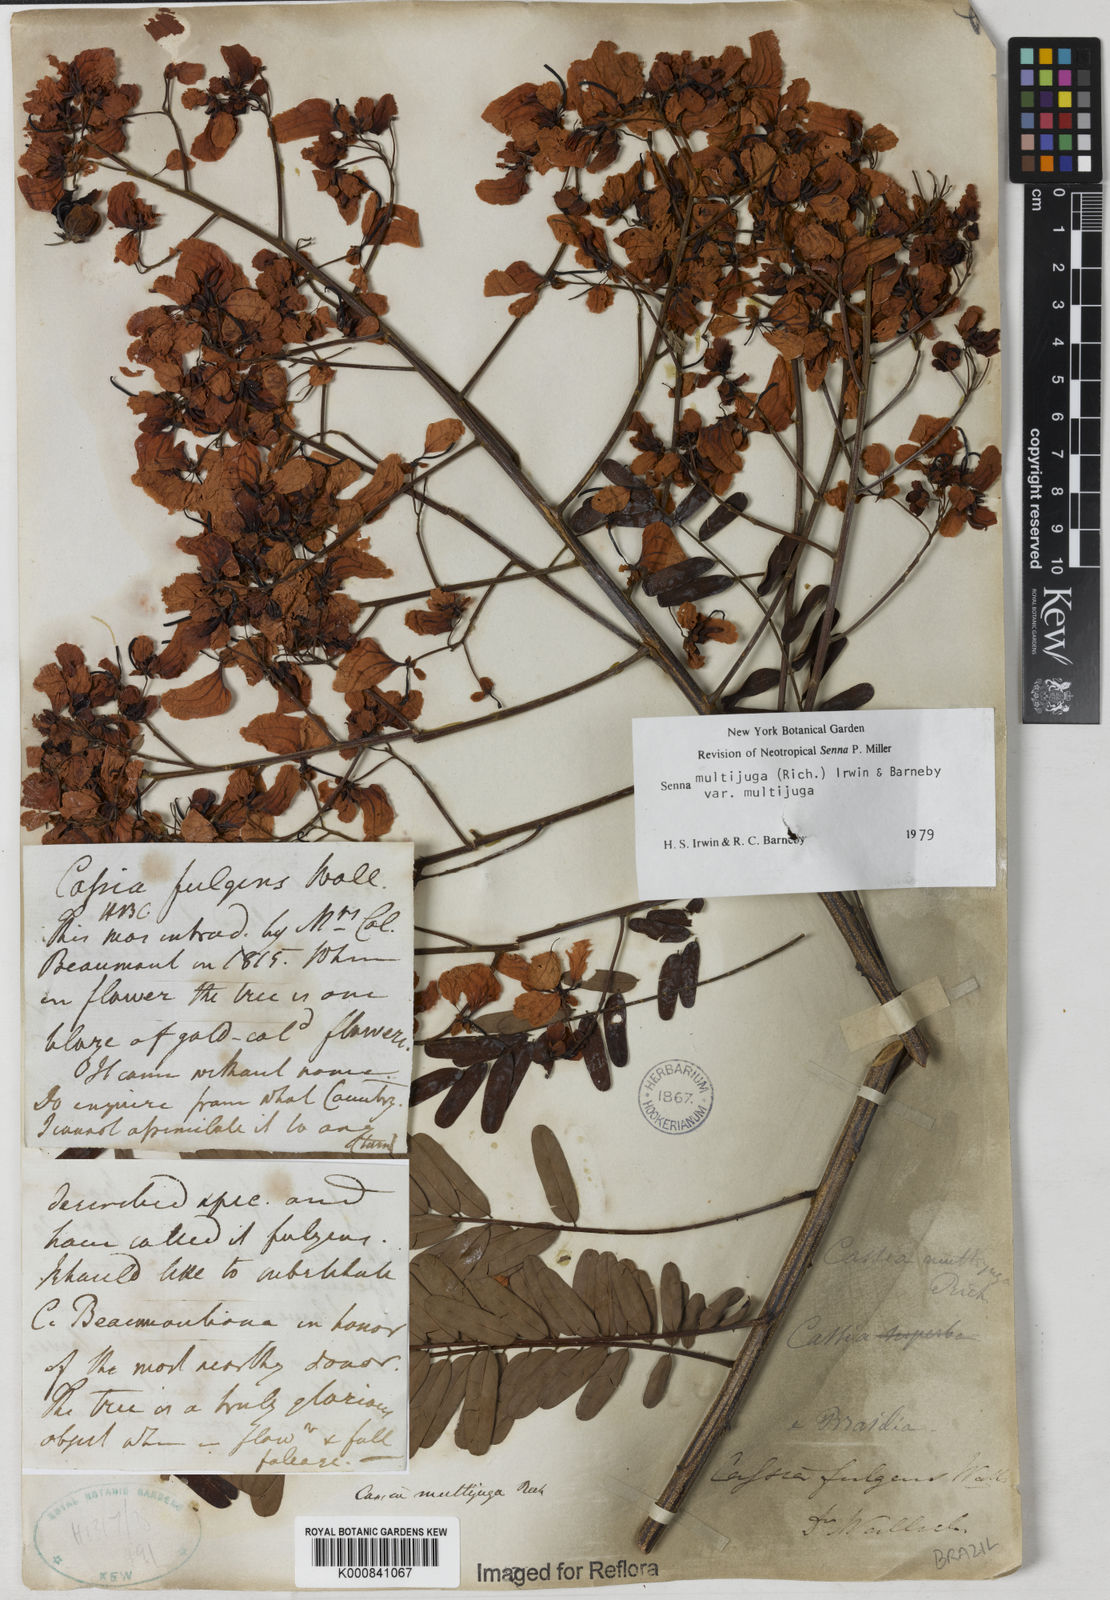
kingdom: Plantae
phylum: Tracheophyta
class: Magnoliopsida
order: Fabales
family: Fabaceae
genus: Senna
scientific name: Senna multijuga
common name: False sicklepod
